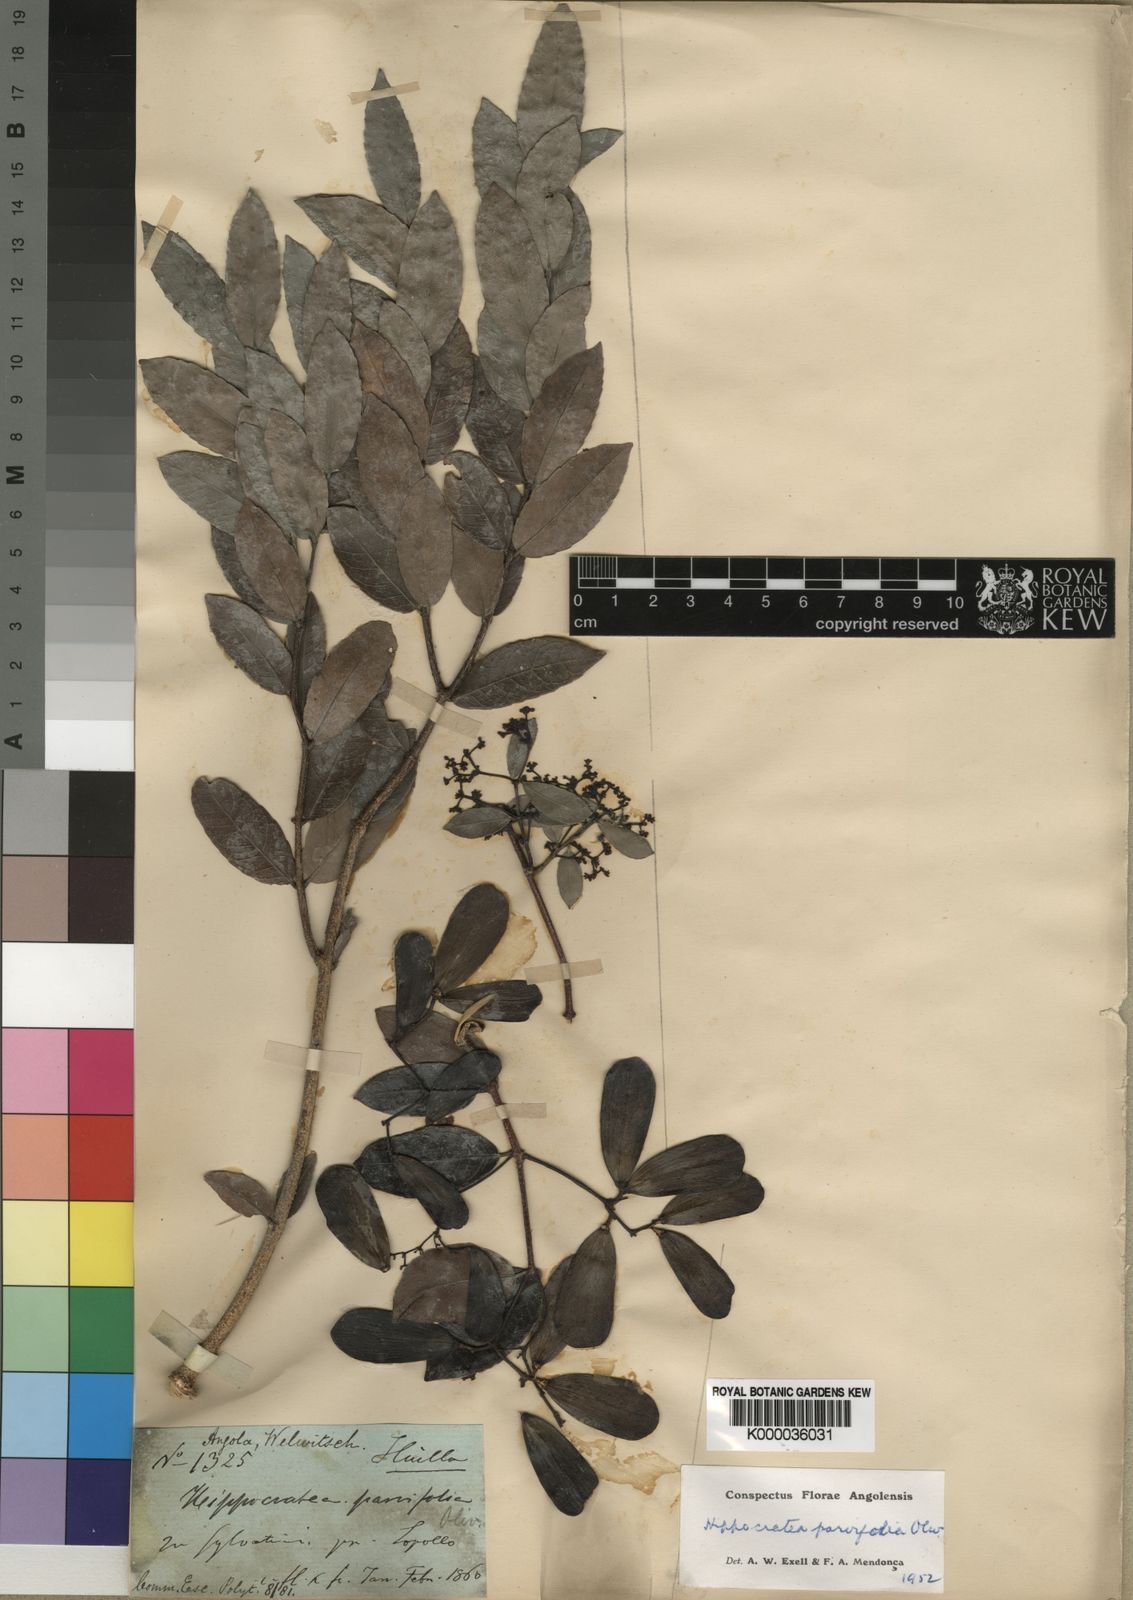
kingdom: Plantae
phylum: Tracheophyta
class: Magnoliopsida
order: Celastrales
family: Celastraceae
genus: Elachyptera
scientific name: Elachyptera parvifolia
